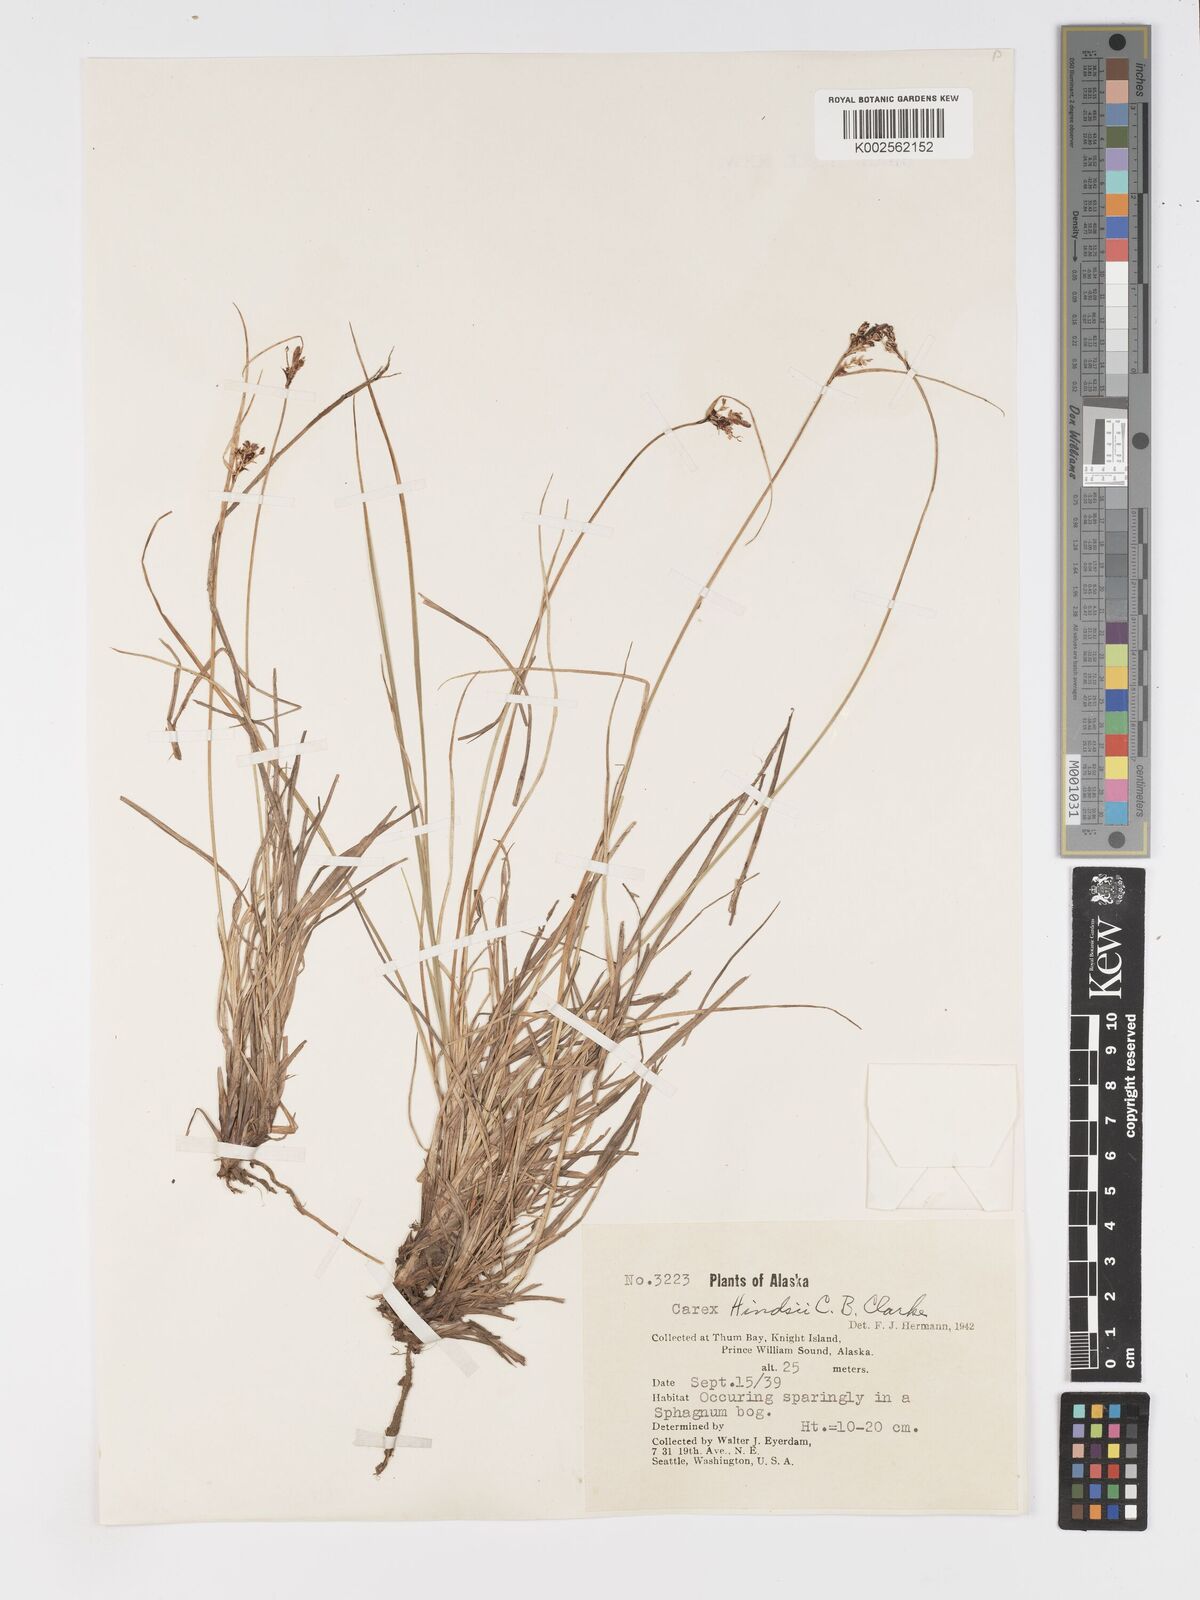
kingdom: Plantae
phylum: Tracheophyta
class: Liliopsida
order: Poales
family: Cyperaceae
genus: Carex
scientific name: Carex kelloggii
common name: Kellogg's sedge
